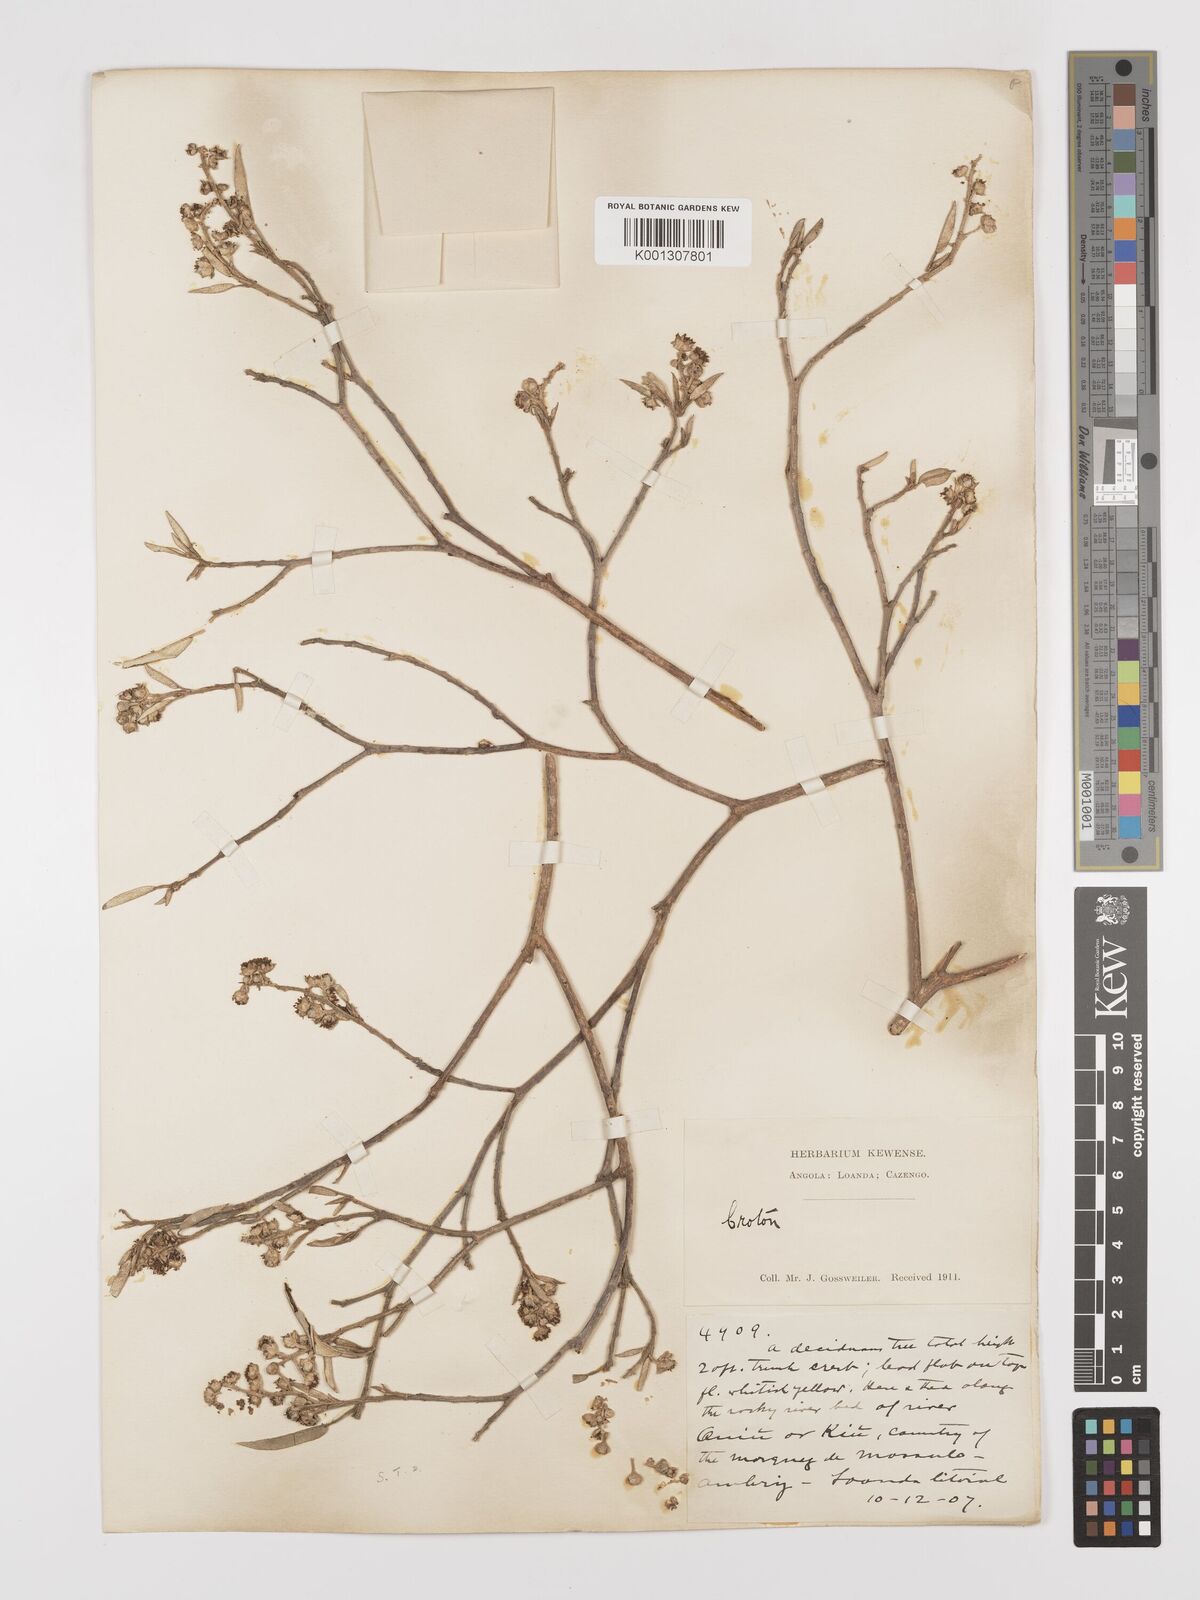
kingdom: Plantae
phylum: Tracheophyta
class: Magnoliopsida
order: Malpighiales
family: Euphorbiaceae
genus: Croton
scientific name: Croton gratissimus
